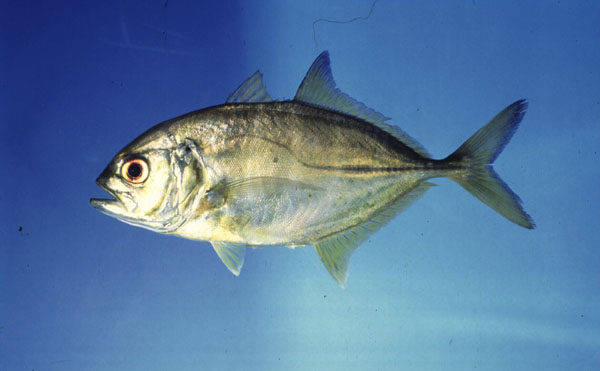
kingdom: Animalia
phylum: Chordata
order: Perciformes
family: Carangidae
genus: Caranx
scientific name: Caranx sexfasciatus
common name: Bigeye trevally
